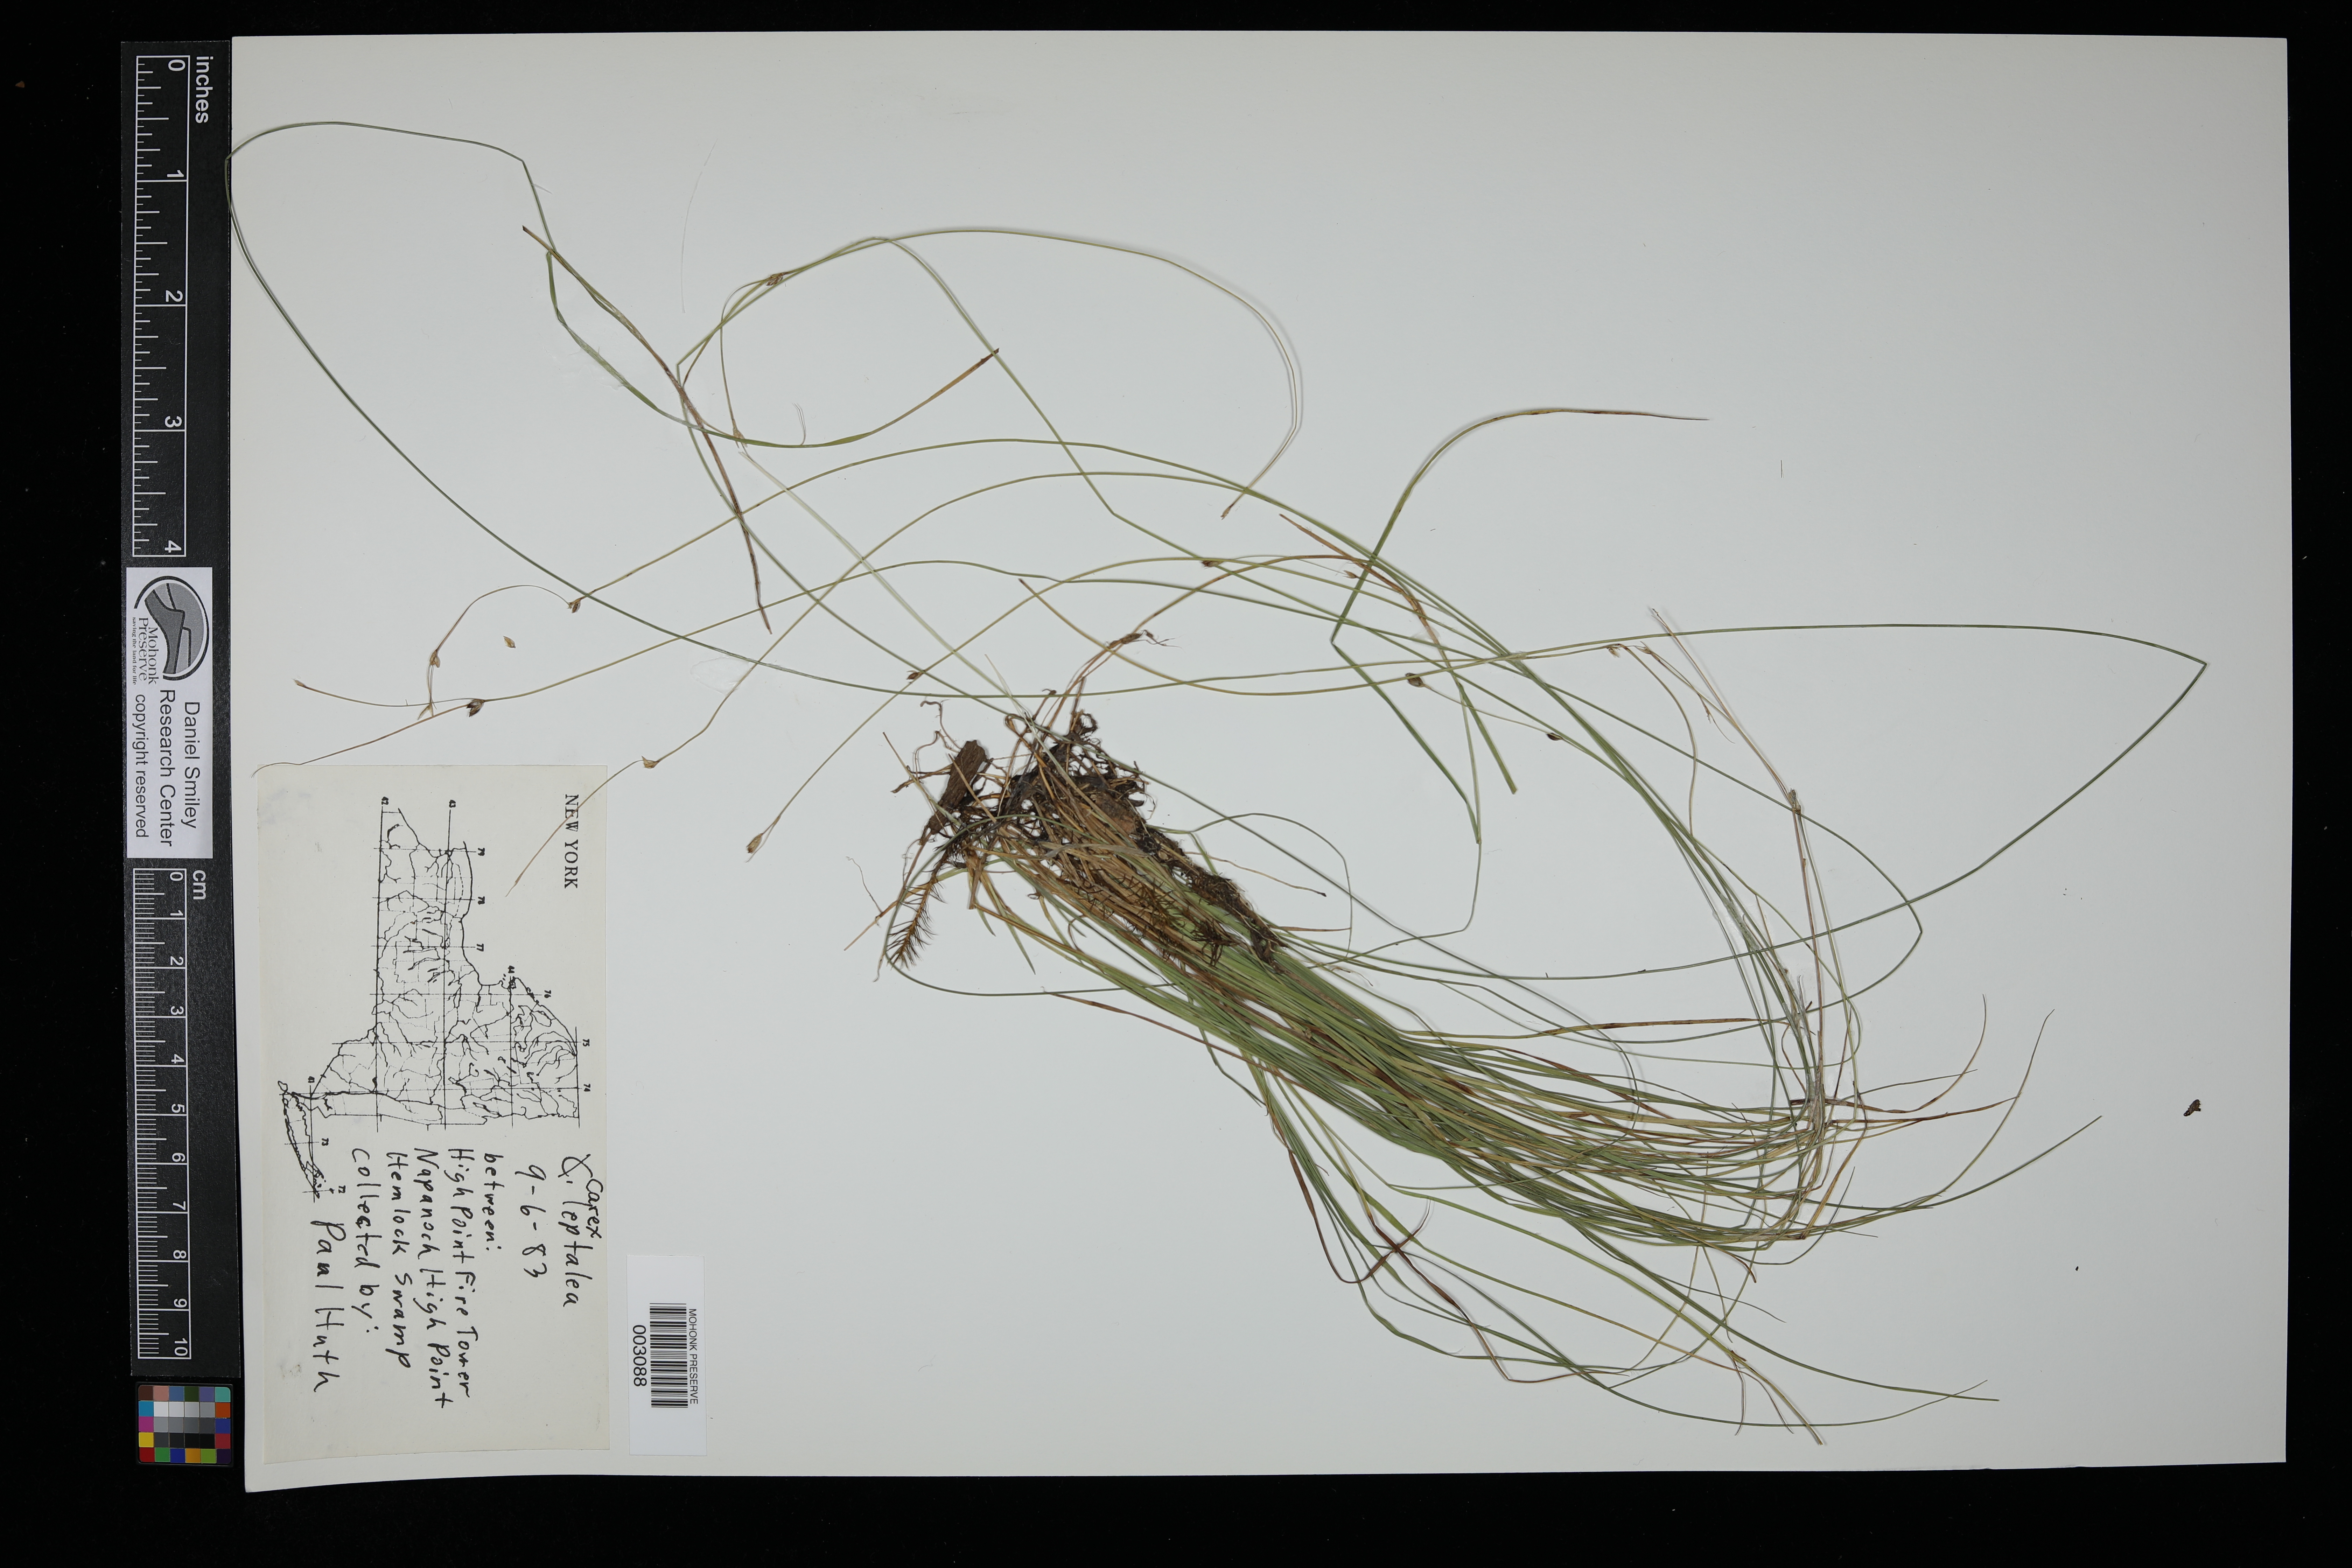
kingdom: Plantae
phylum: Tracheophyta
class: Liliopsida
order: Poales
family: Cyperaceae
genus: Carex
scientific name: Carex leptalea
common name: Bristly-stalked sedge
